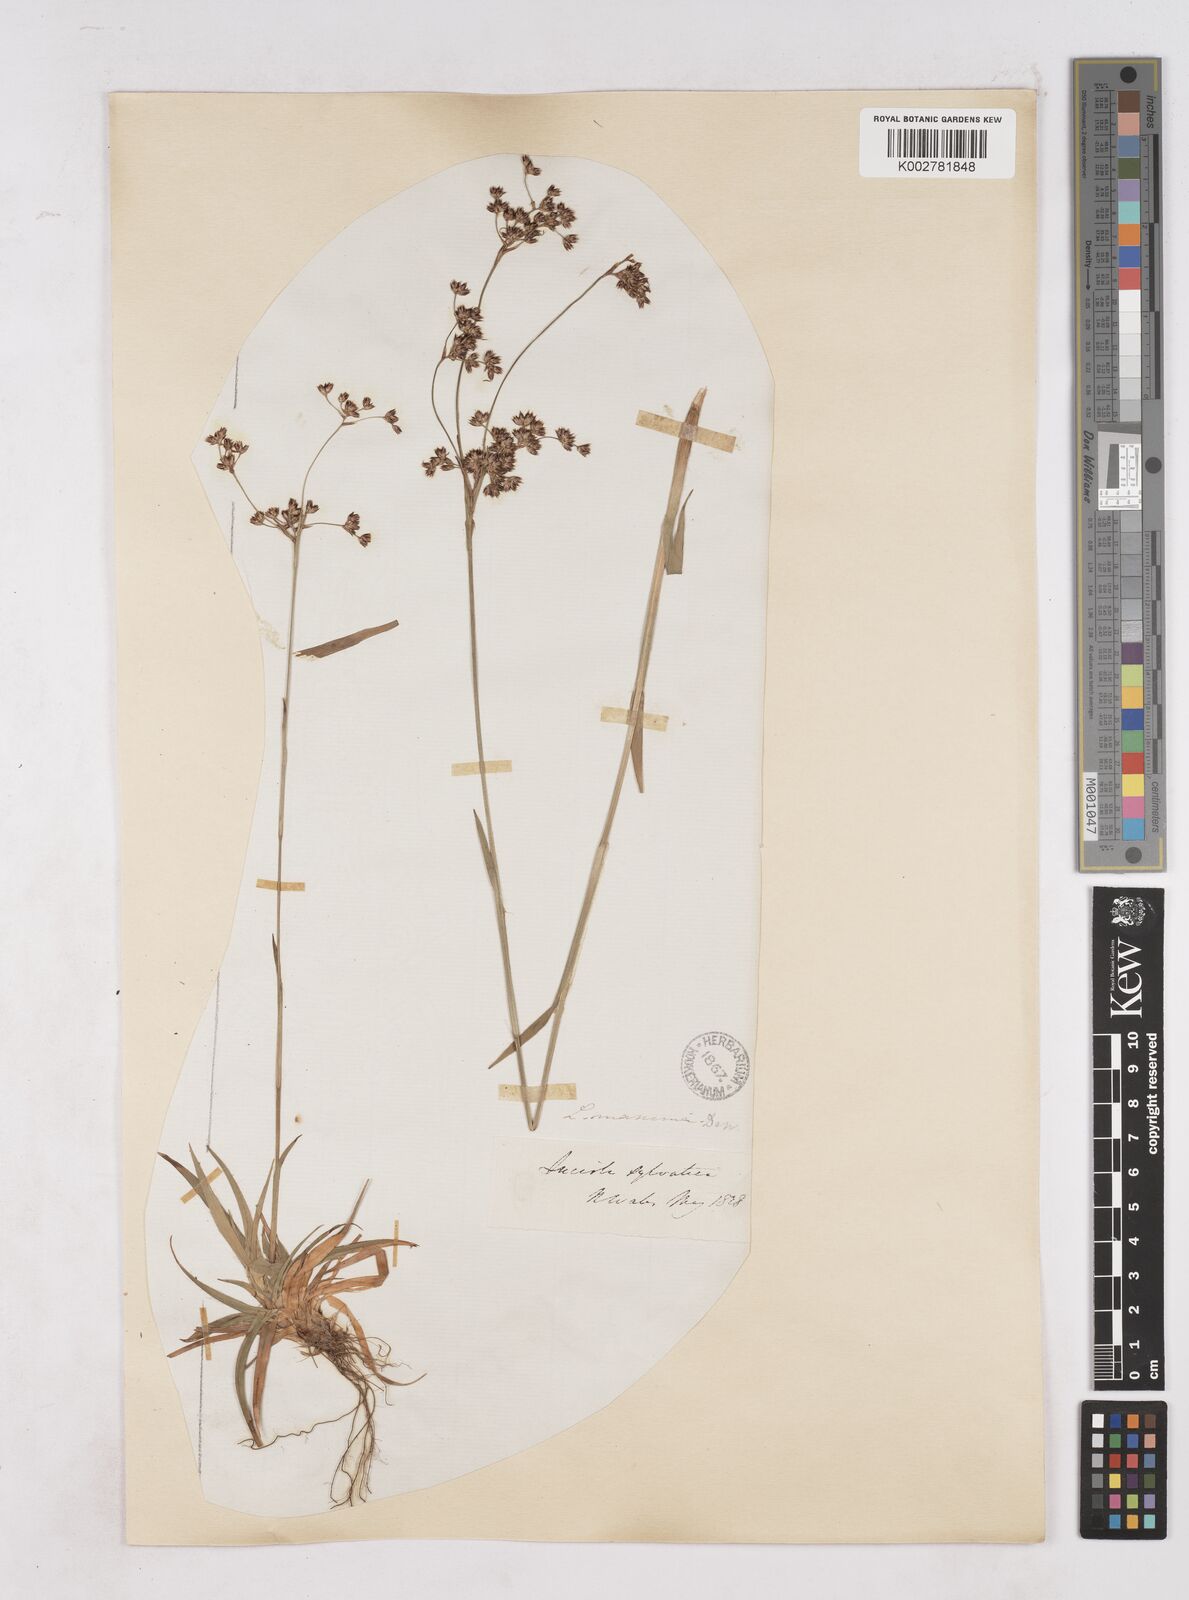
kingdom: Plantae
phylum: Tracheophyta
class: Liliopsida
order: Poales
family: Juncaceae
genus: Luzula
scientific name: Luzula sylvatica
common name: Great wood-rush
